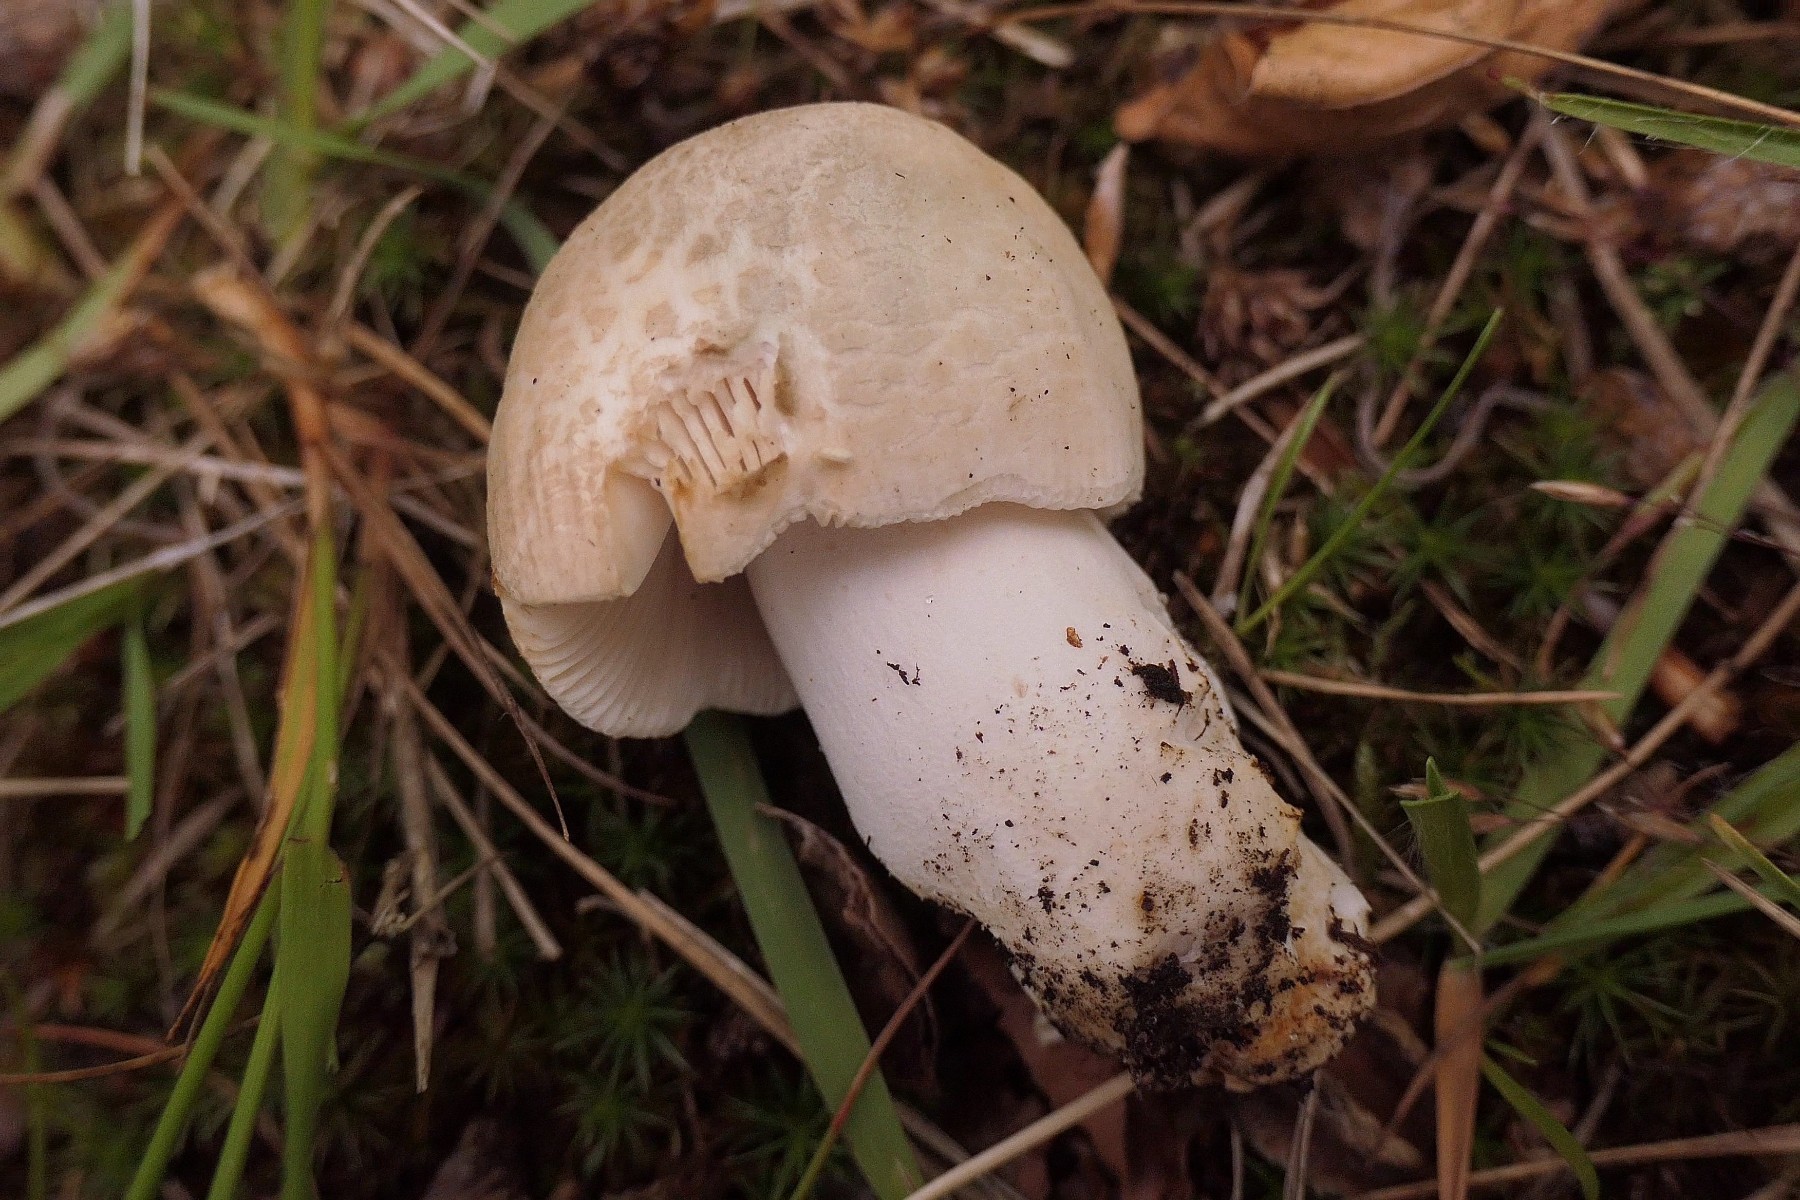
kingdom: Fungi
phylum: Basidiomycota
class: Agaricomycetes
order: Russulales
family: Russulaceae
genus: Russula
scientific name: Russula virescens
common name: spanskgrøn skørhat
